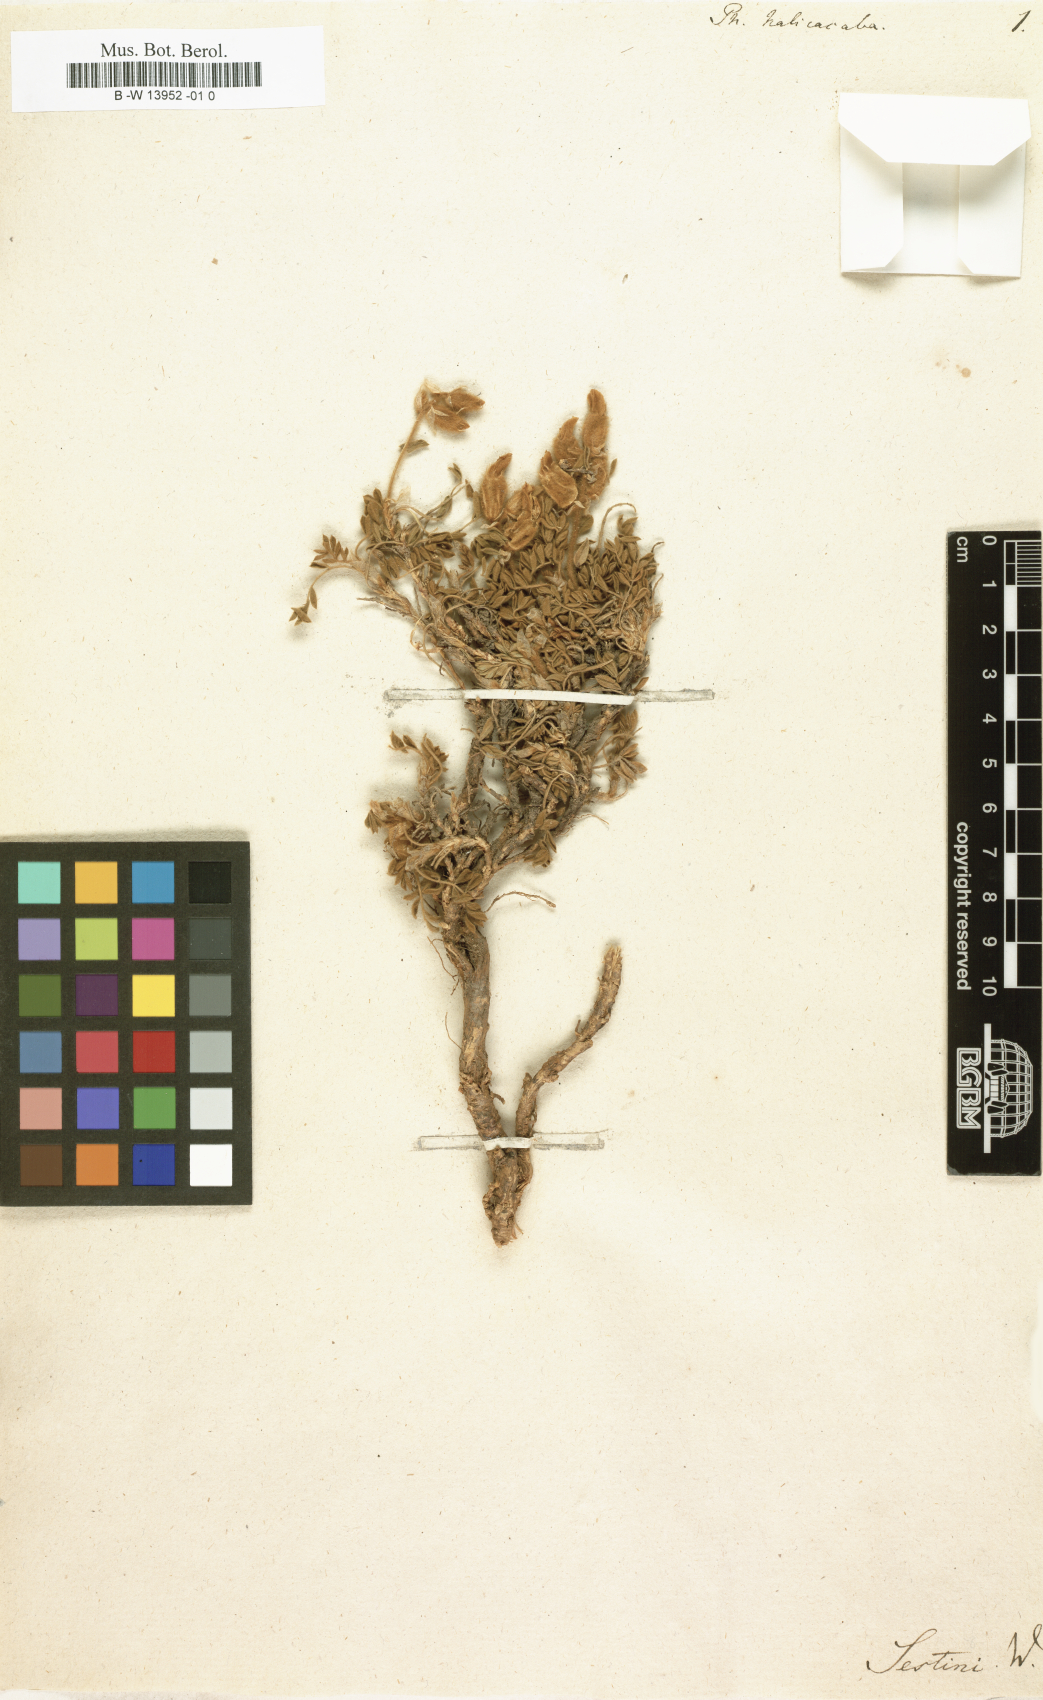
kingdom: Plantae
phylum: Tracheophyta
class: Magnoliopsida
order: Fabales
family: Fabaceae
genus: Astragalus
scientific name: Astragalus vulnerariae
